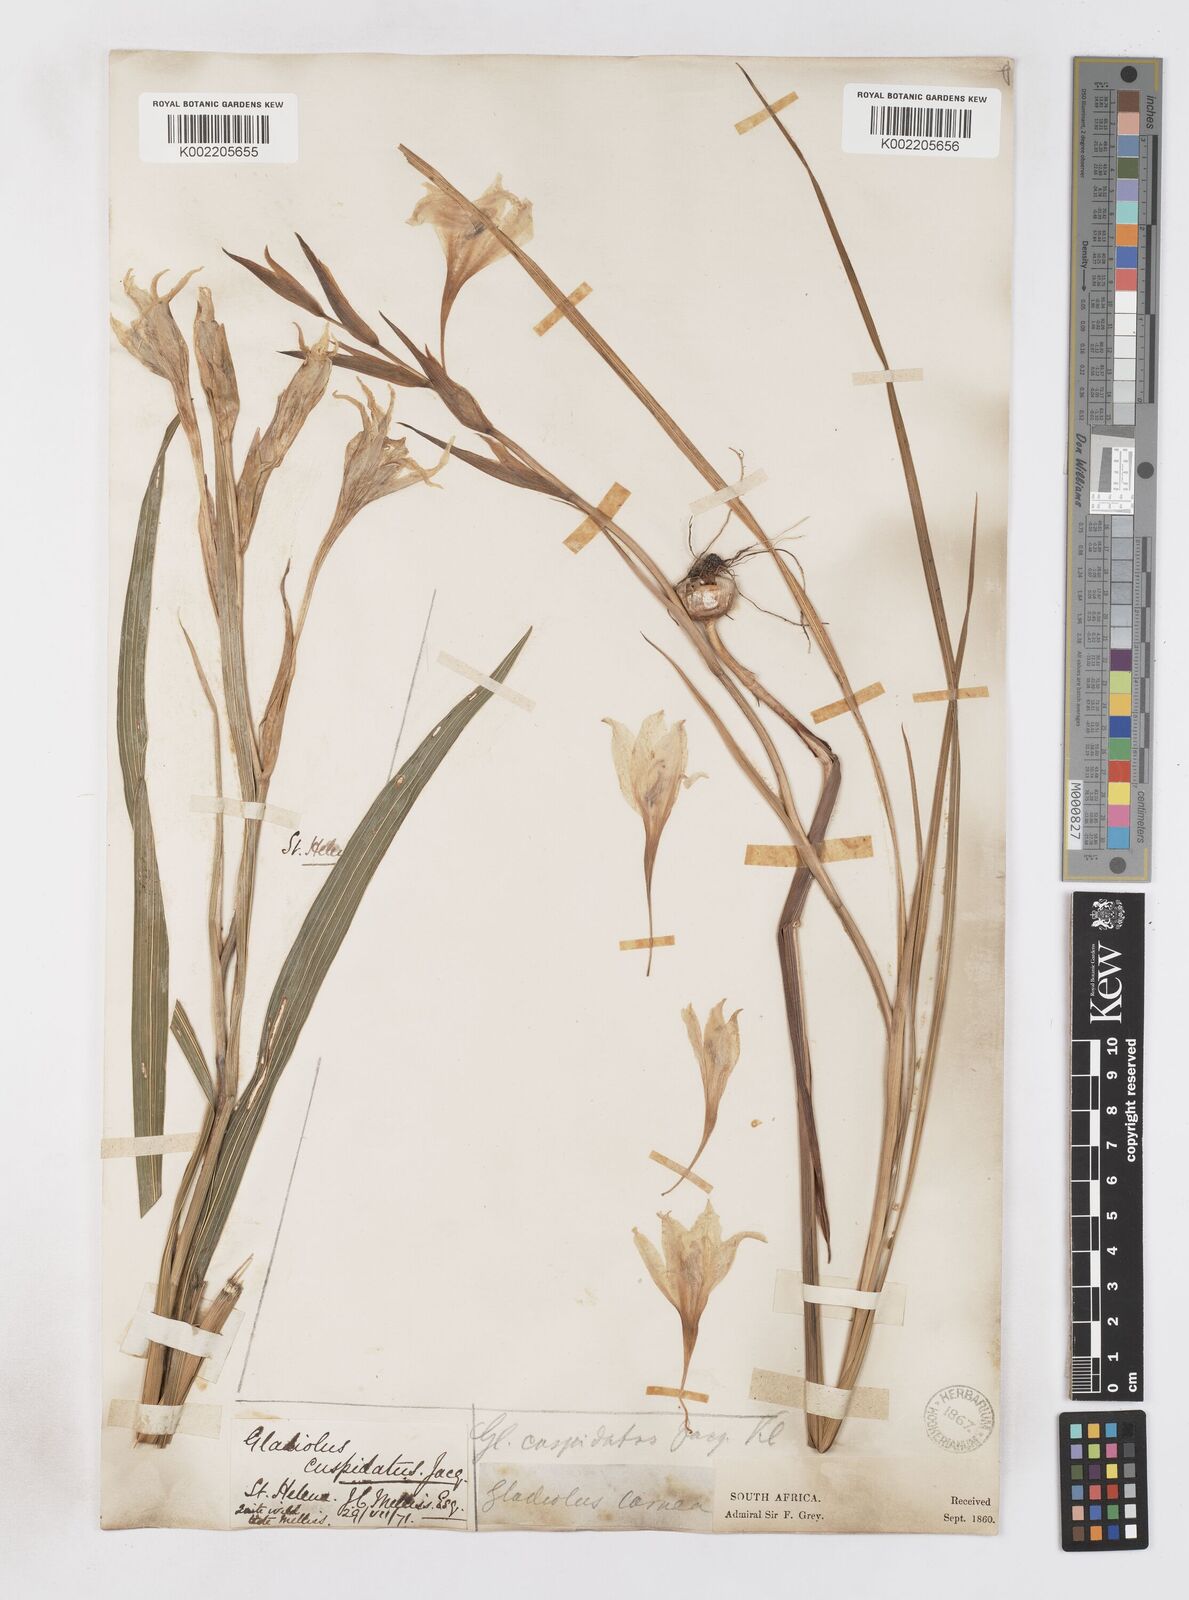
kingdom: Plantae
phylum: Tracheophyta
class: Liliopsida
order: Asparagales
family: Iridaceae
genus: Gladiolus
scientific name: Gladiolus undulatus
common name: Large painted-lady
